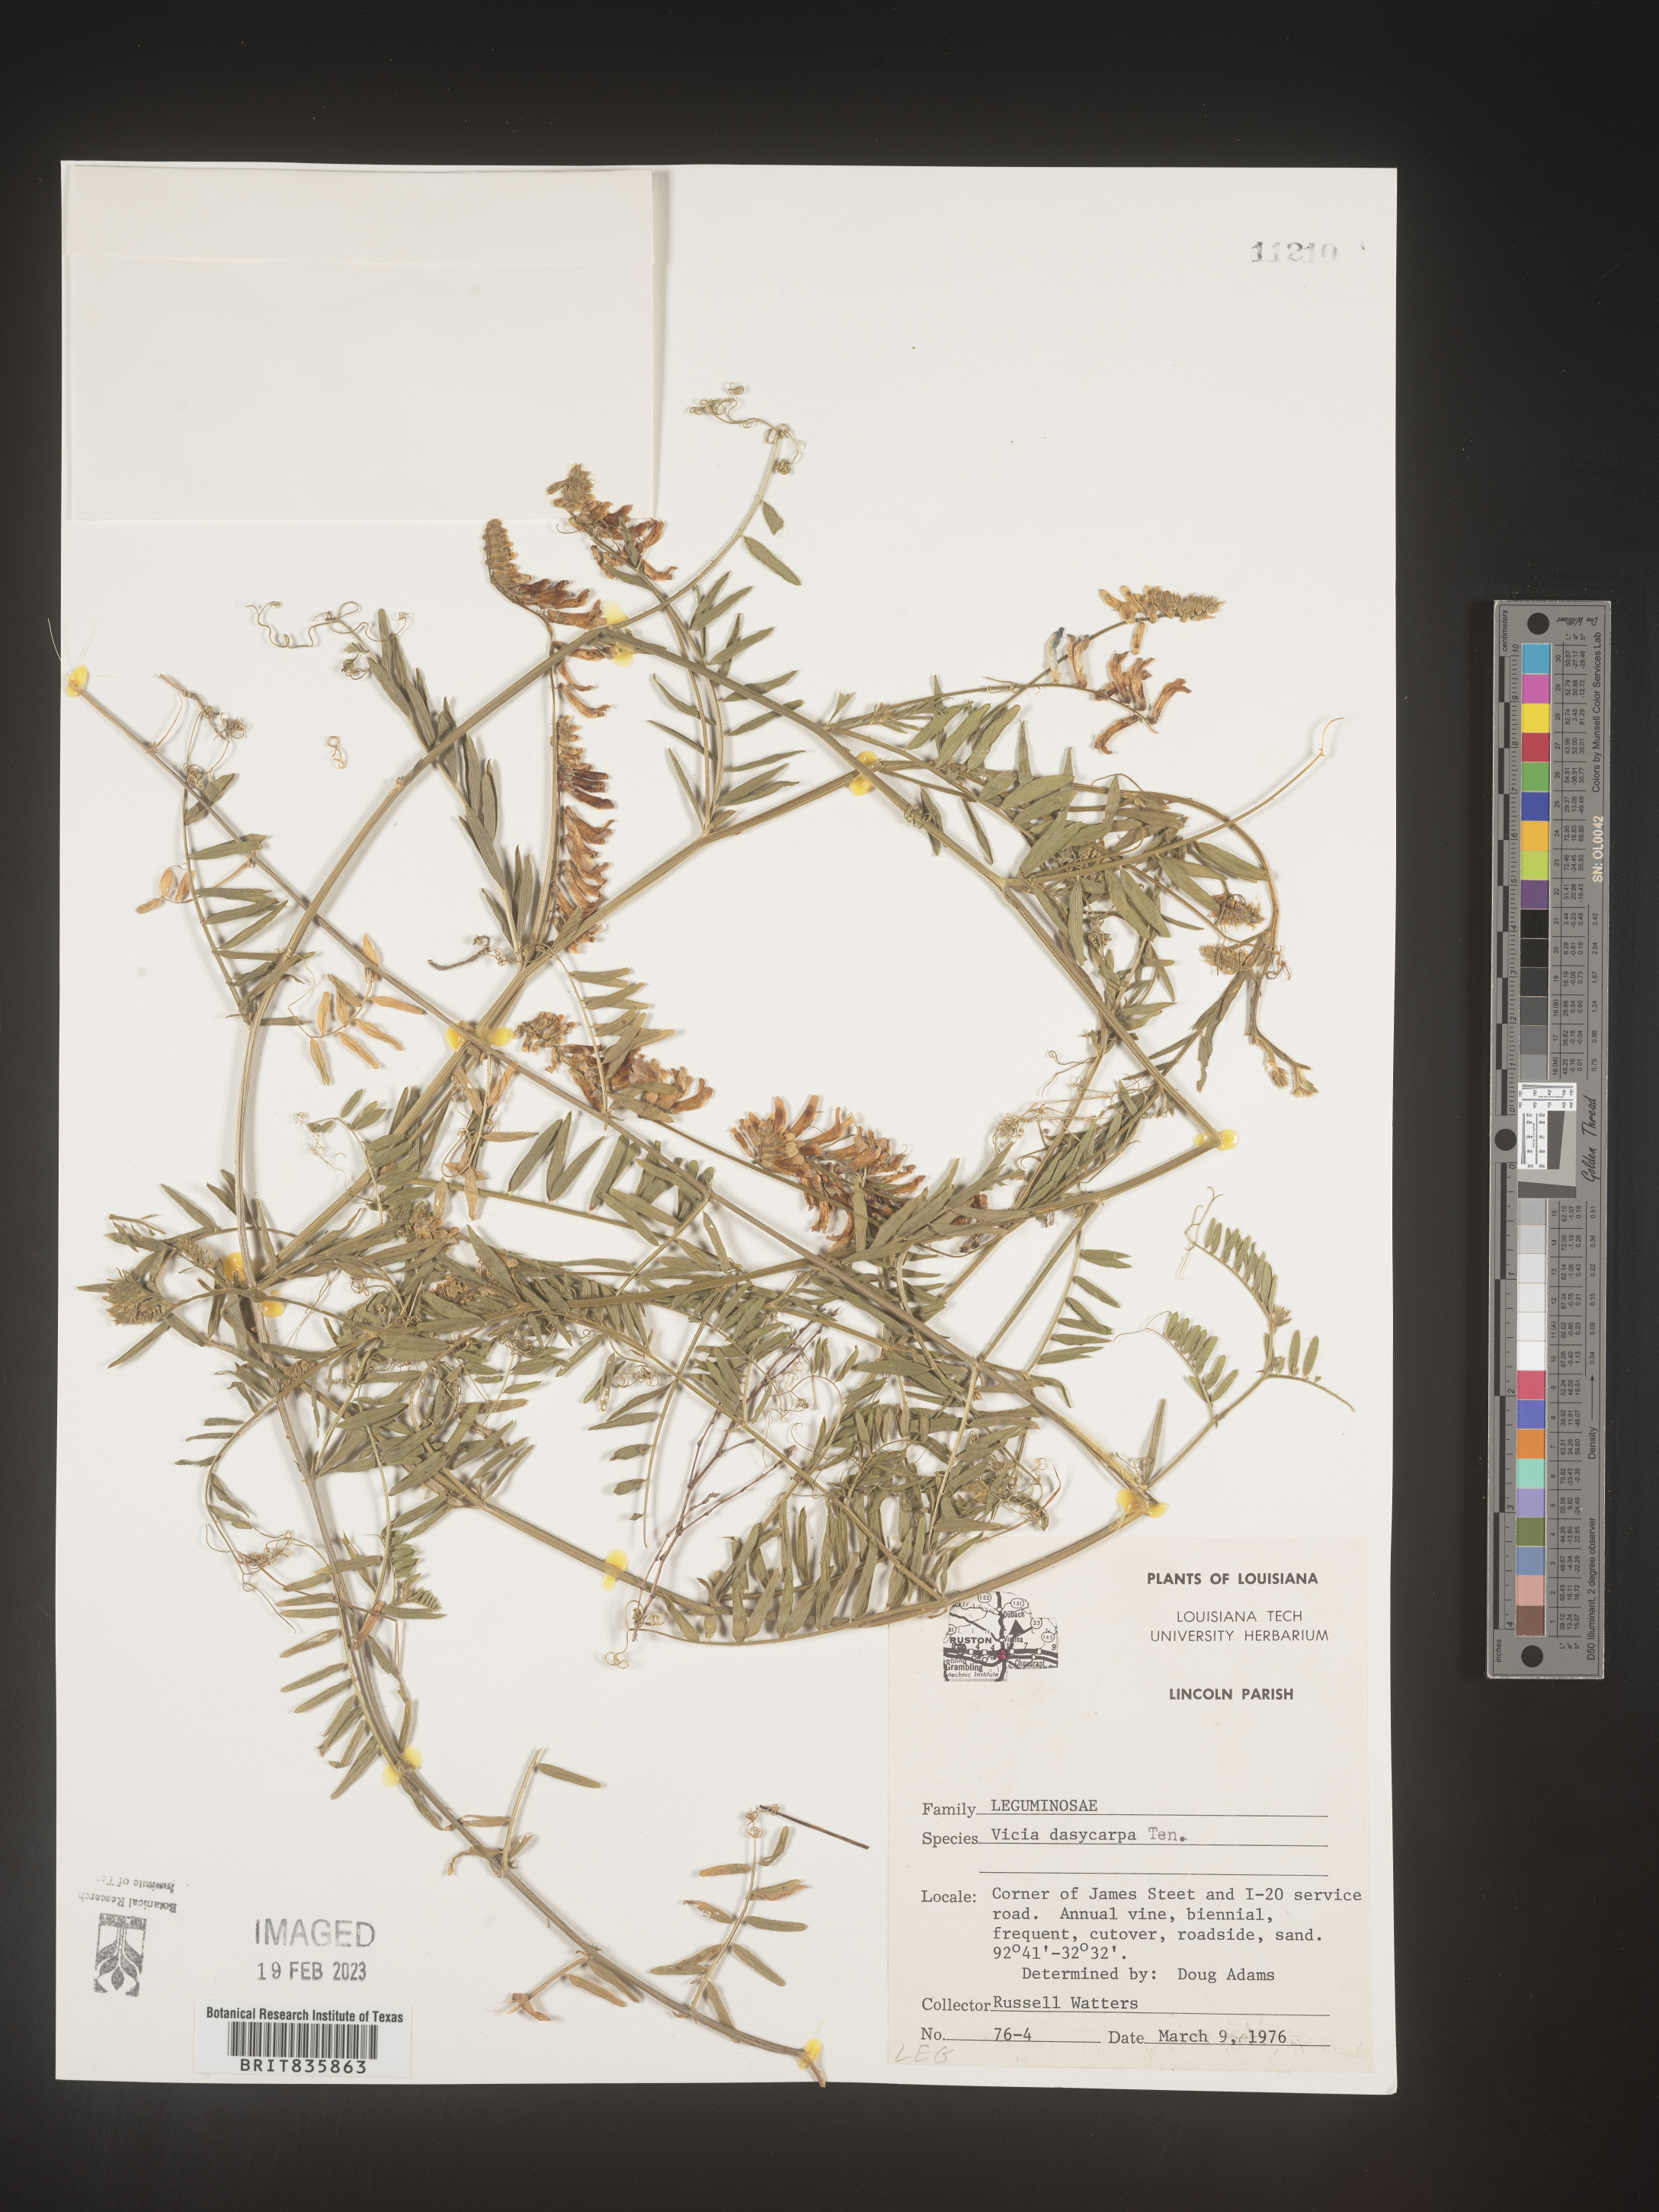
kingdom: Plantae
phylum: Tracheophyta
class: Magnoliopsida
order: Fabales
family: Fabaceae
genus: Vicia
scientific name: Vicia villosa
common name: Fodder vetch
